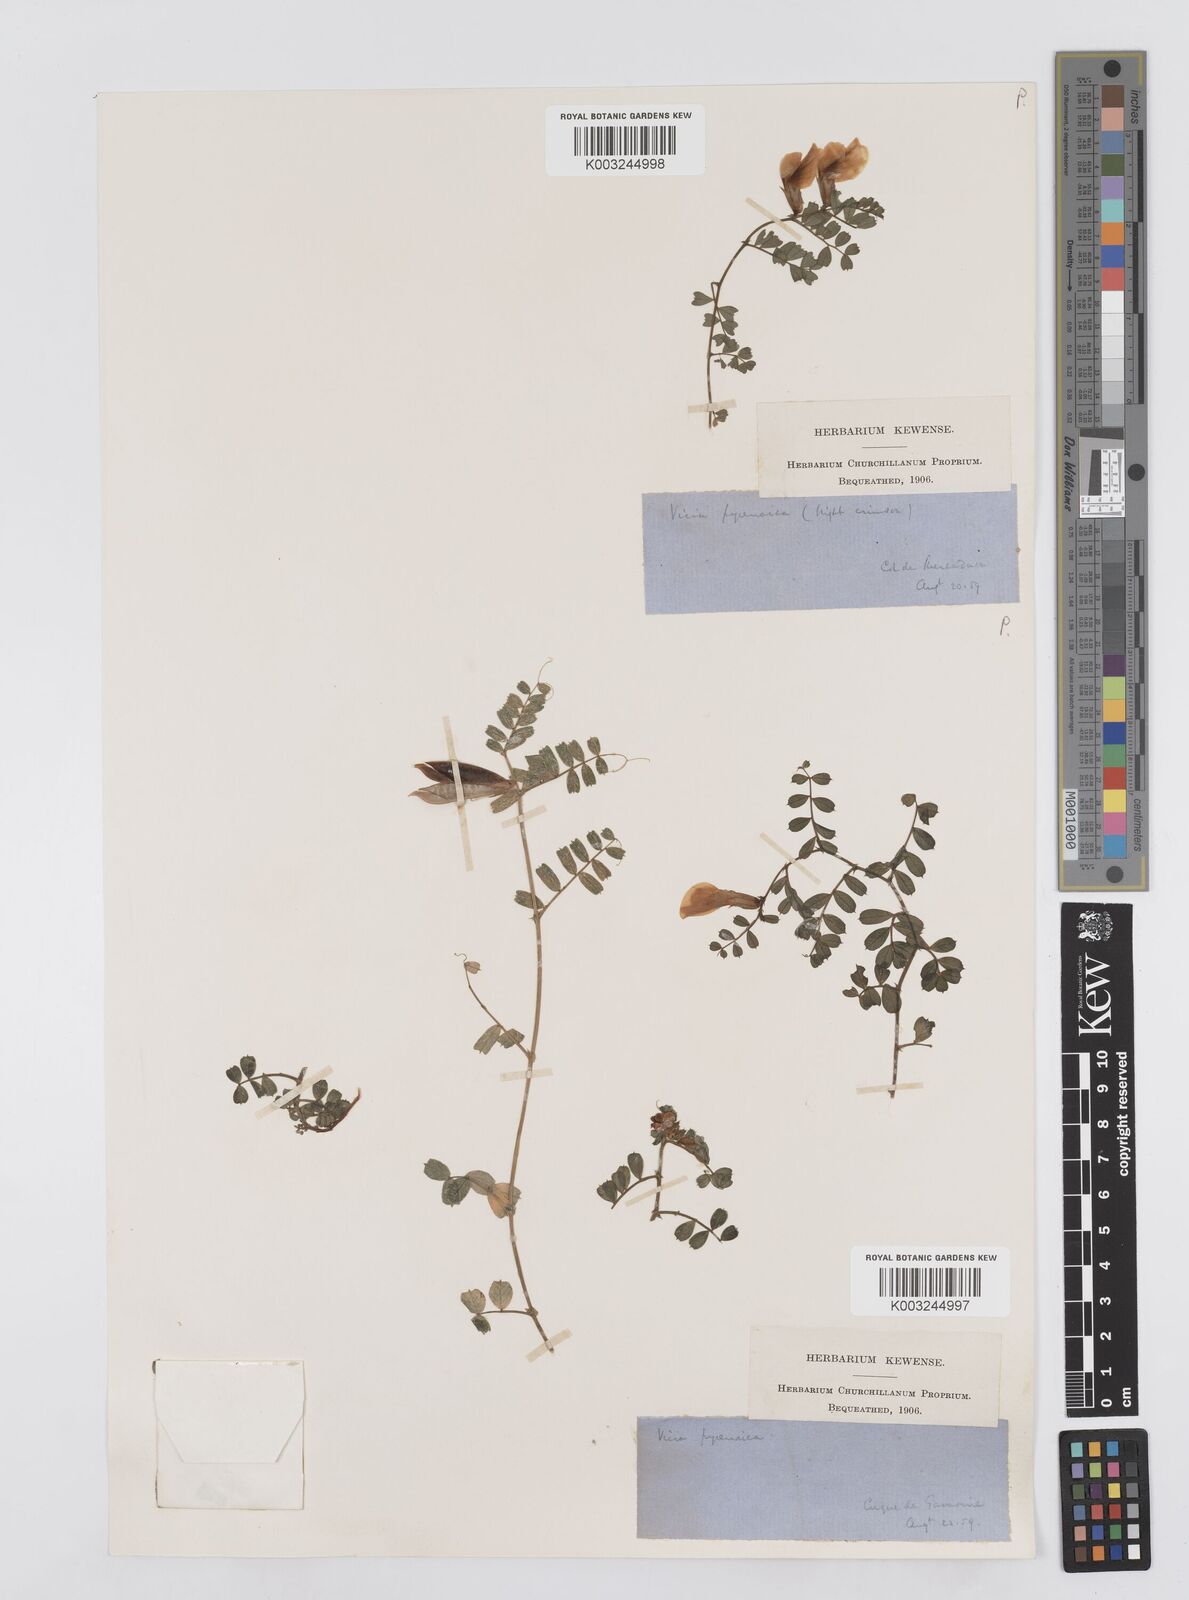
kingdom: Plantae
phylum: Tracheophyta
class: Magnoliopsida
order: Fabales
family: Fabaceae
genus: Vicia
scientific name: Vicia pyrenaica
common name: Pyrenean vetch
